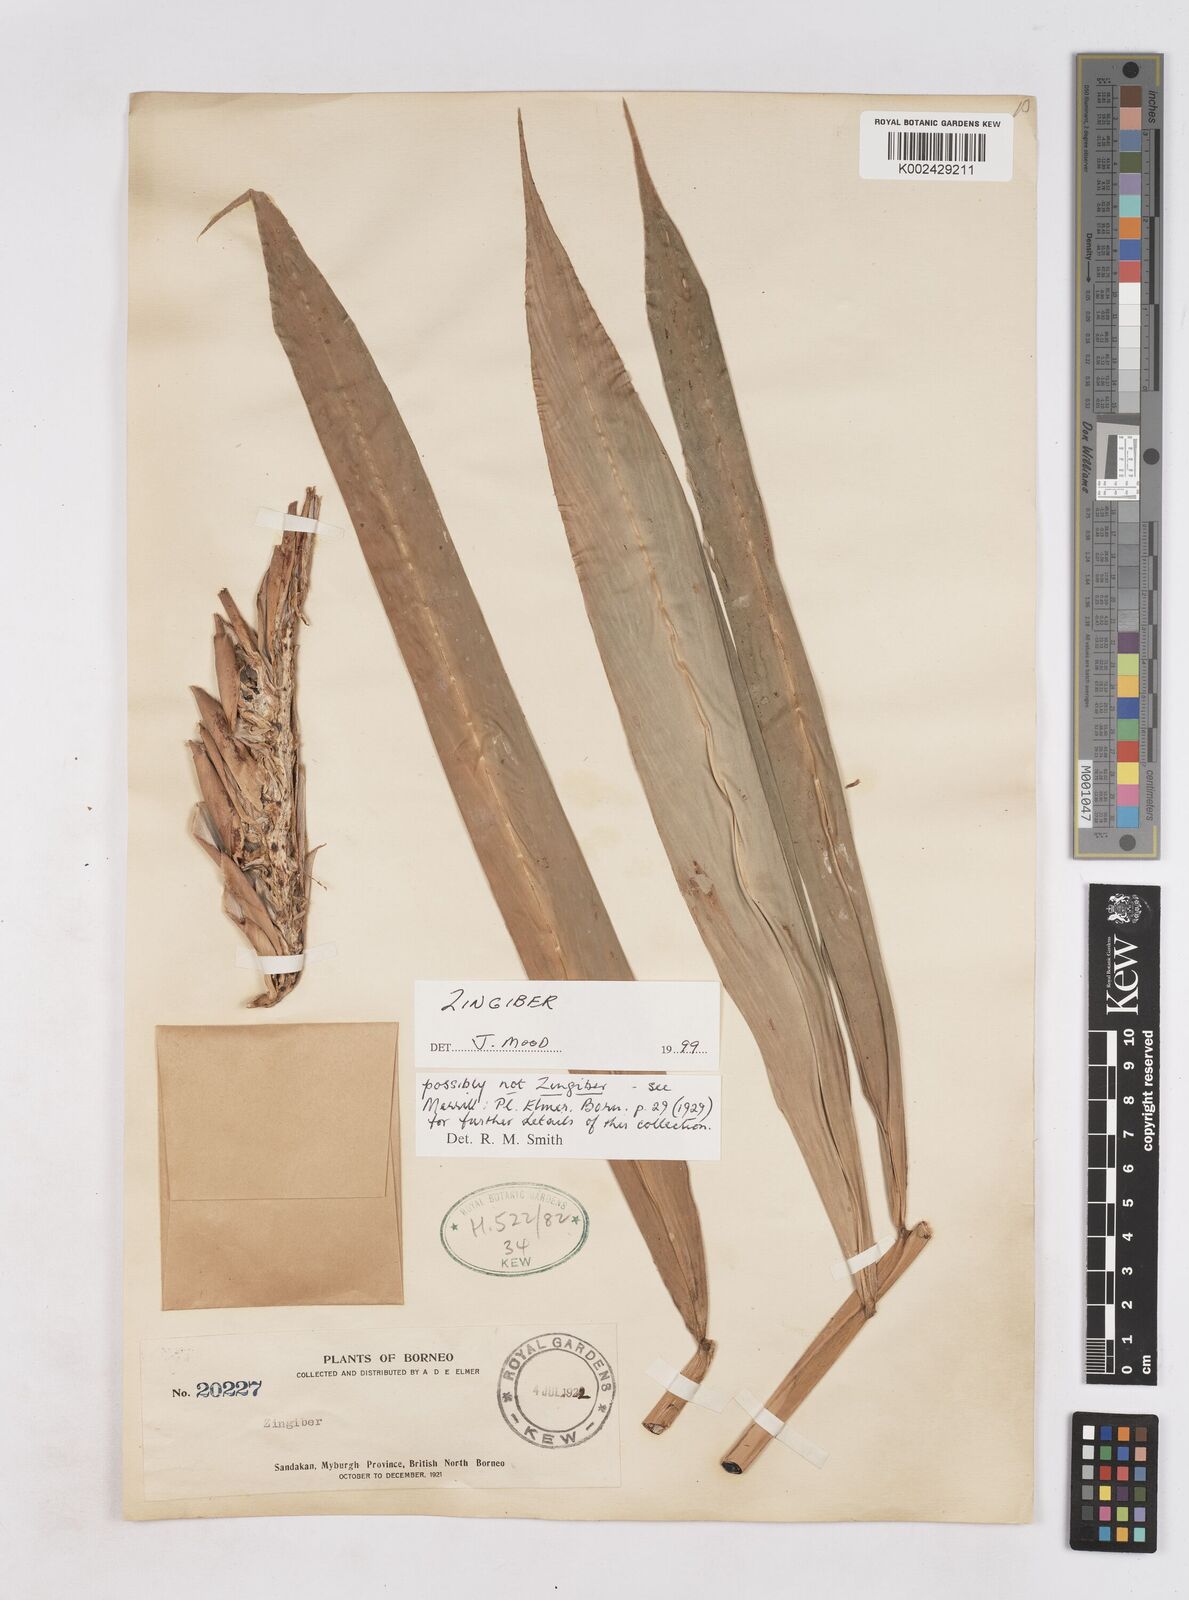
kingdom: Plantae
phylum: Tracheophyta
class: Liliopsida
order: Zingiberales
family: Zingiberaceae
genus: Zingiber
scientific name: Zingiber
